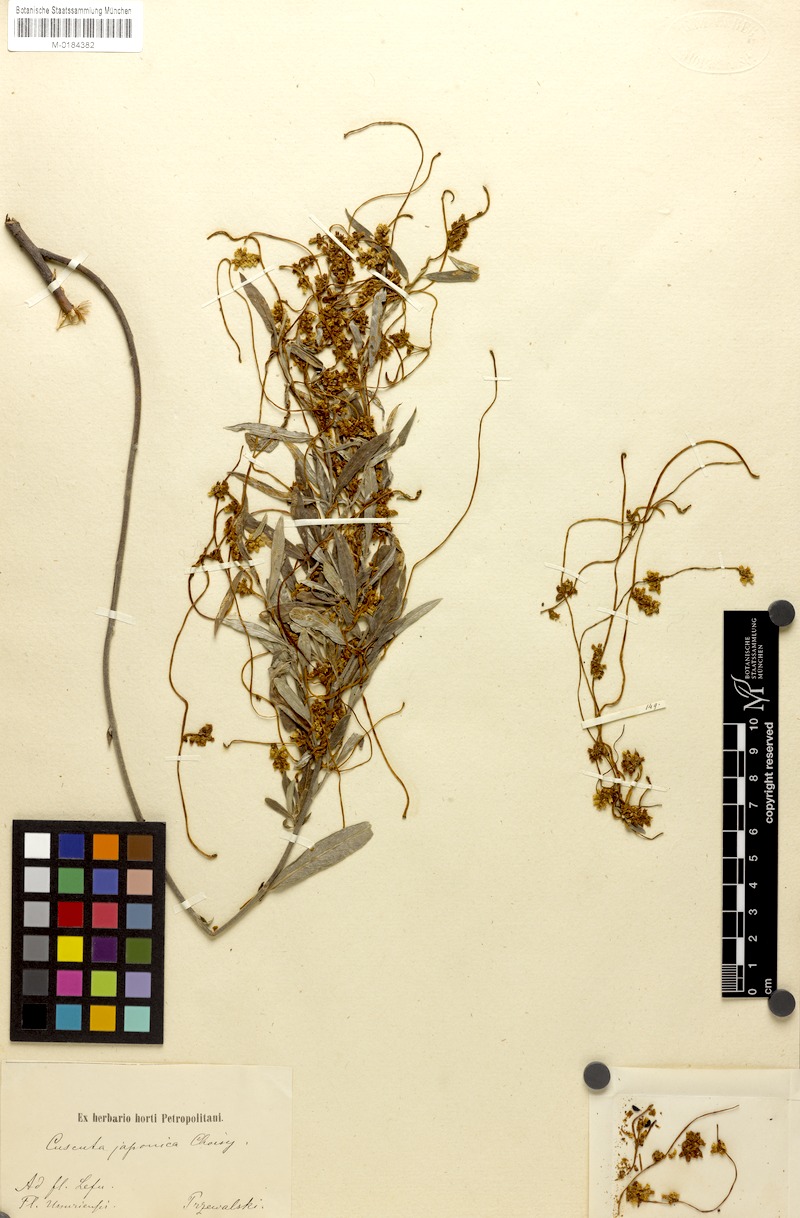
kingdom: Plantae
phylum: Tracheophyta
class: Magnoliopsida
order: Solanales
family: Convolvulaceae
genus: Cuscuta
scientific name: Cuscuta japonica
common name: Japanese dodder
